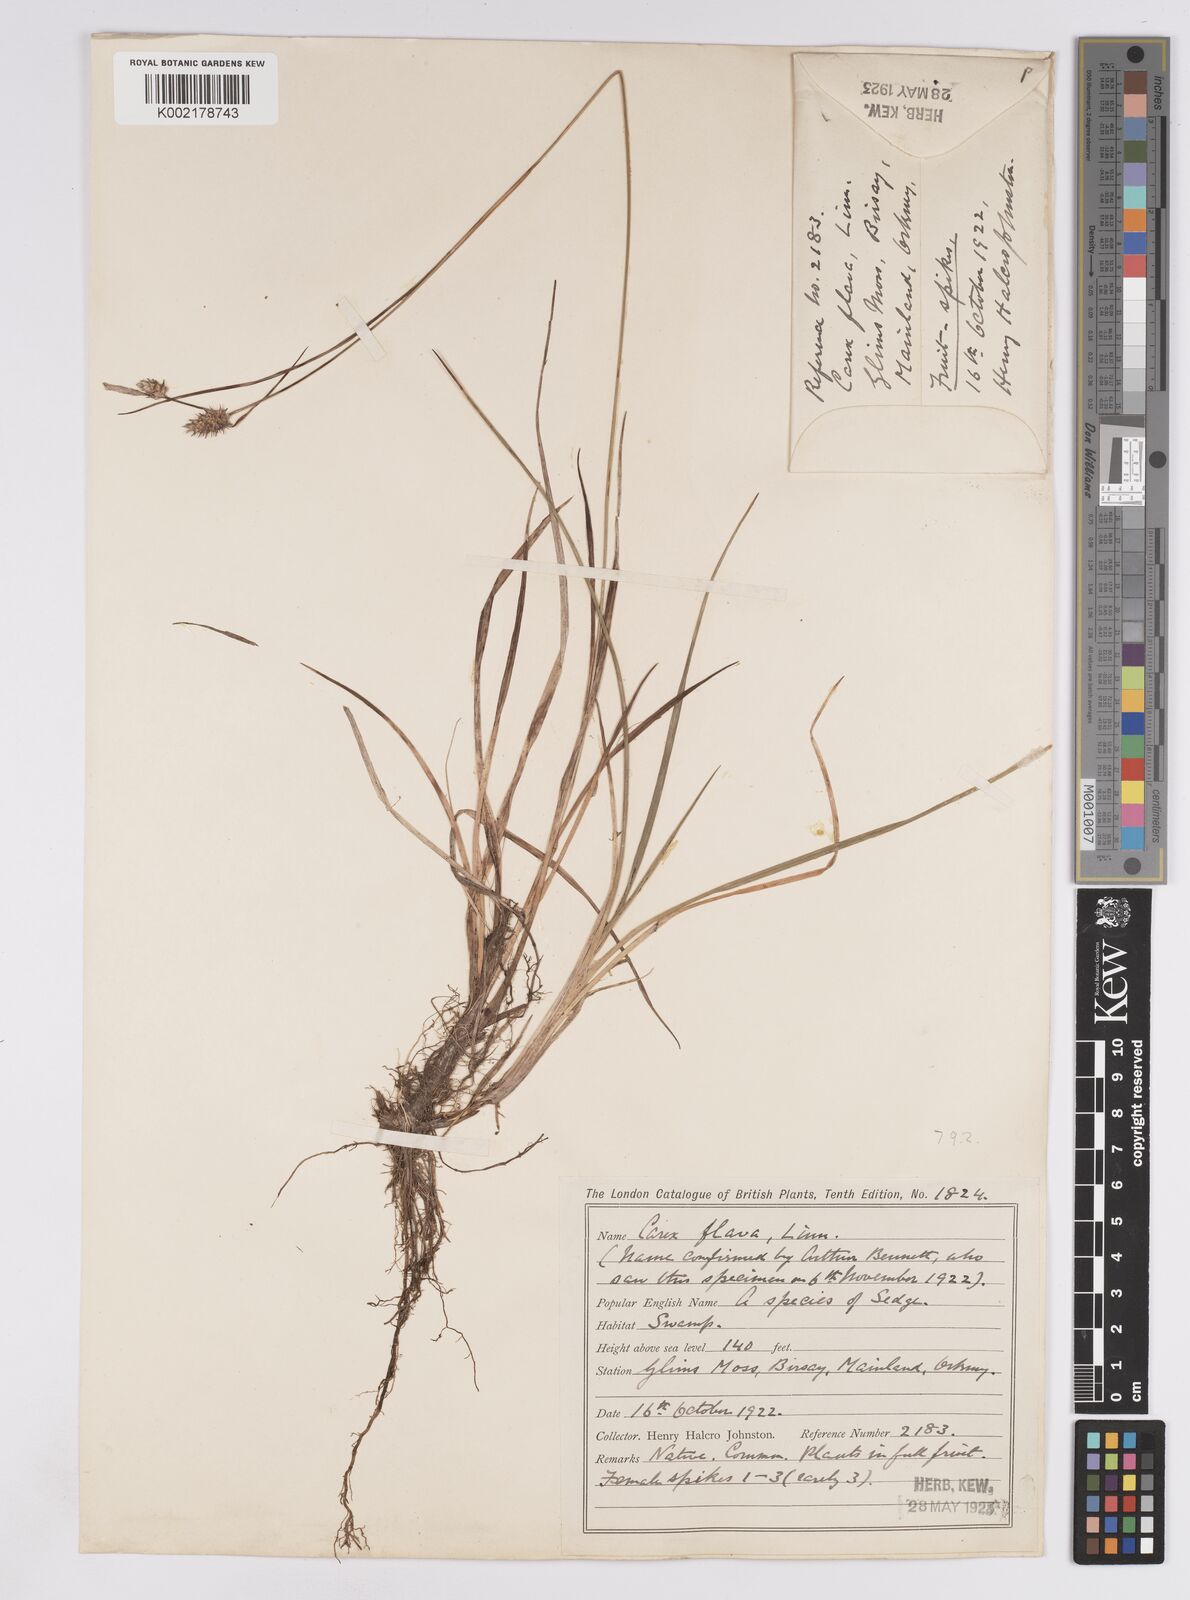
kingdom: Plantae
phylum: Tracheophyta
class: Liliopsida
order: Poales
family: Cyperaceae
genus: Carex
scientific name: Carex lepidocarpa
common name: Long-stalked yellow-sedge
